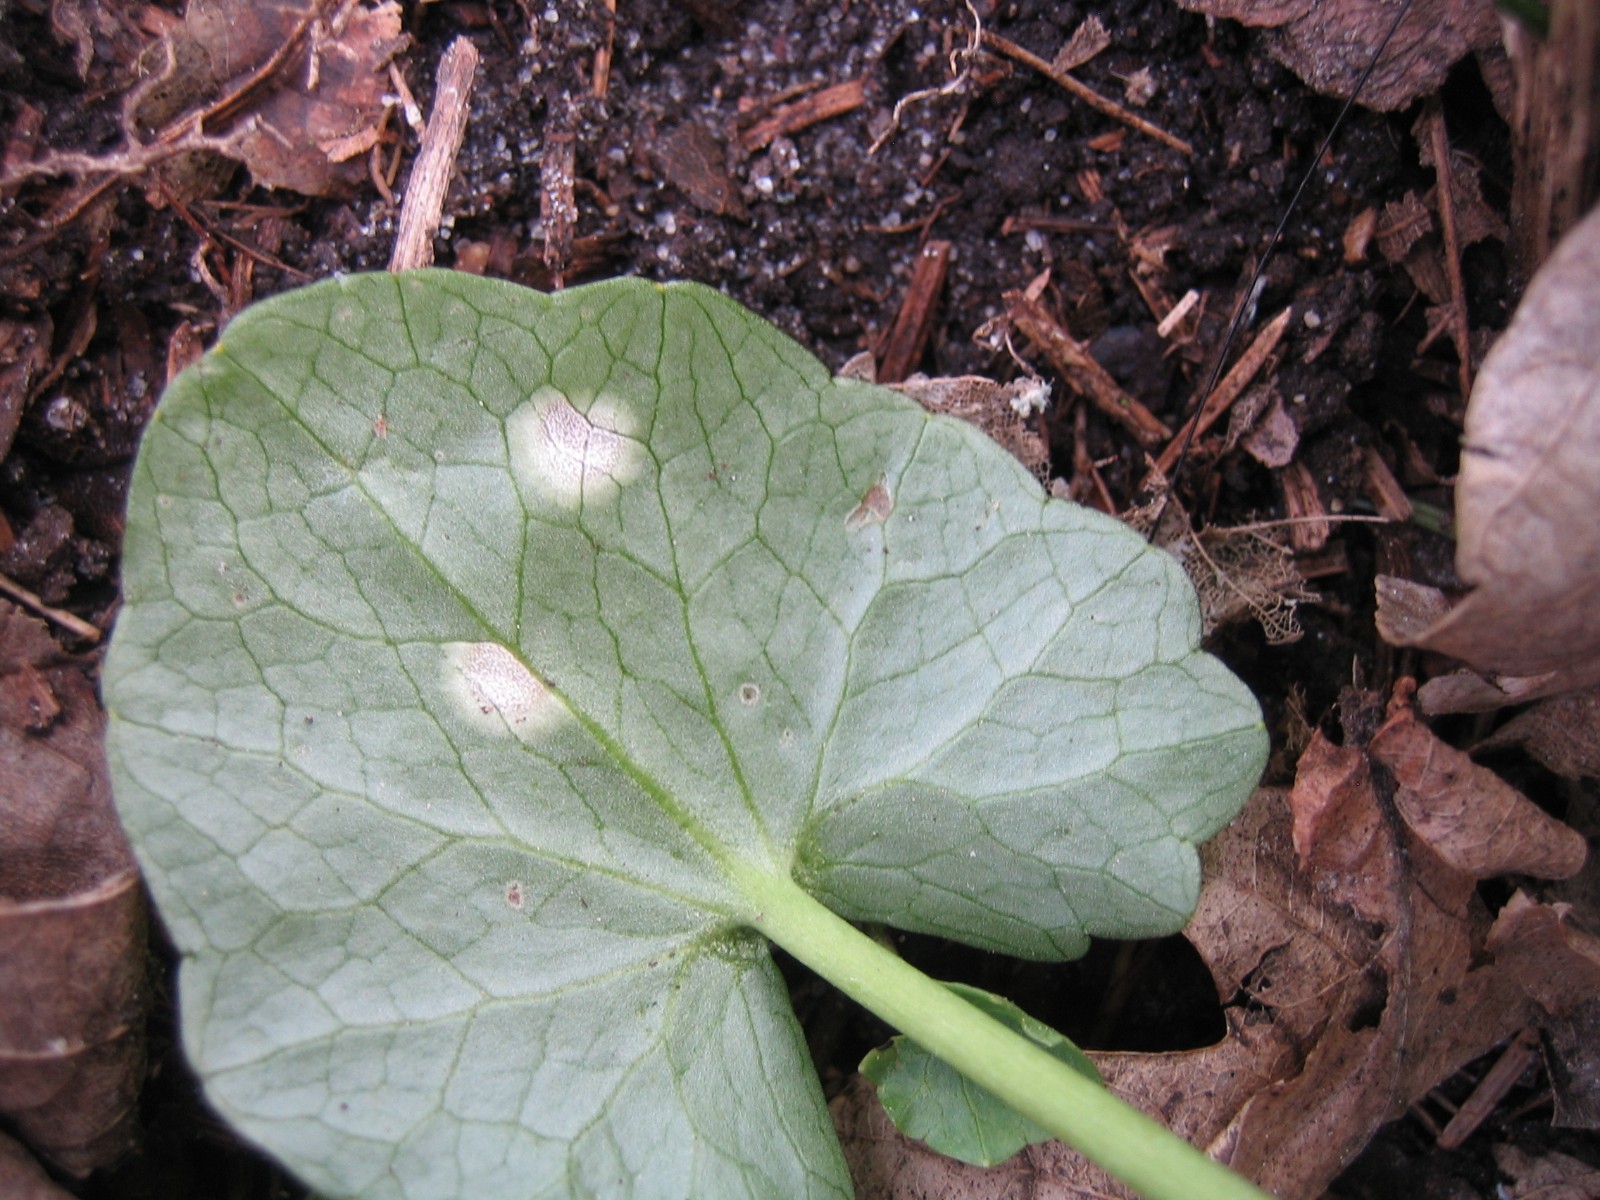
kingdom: Fungi
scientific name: Fungi
